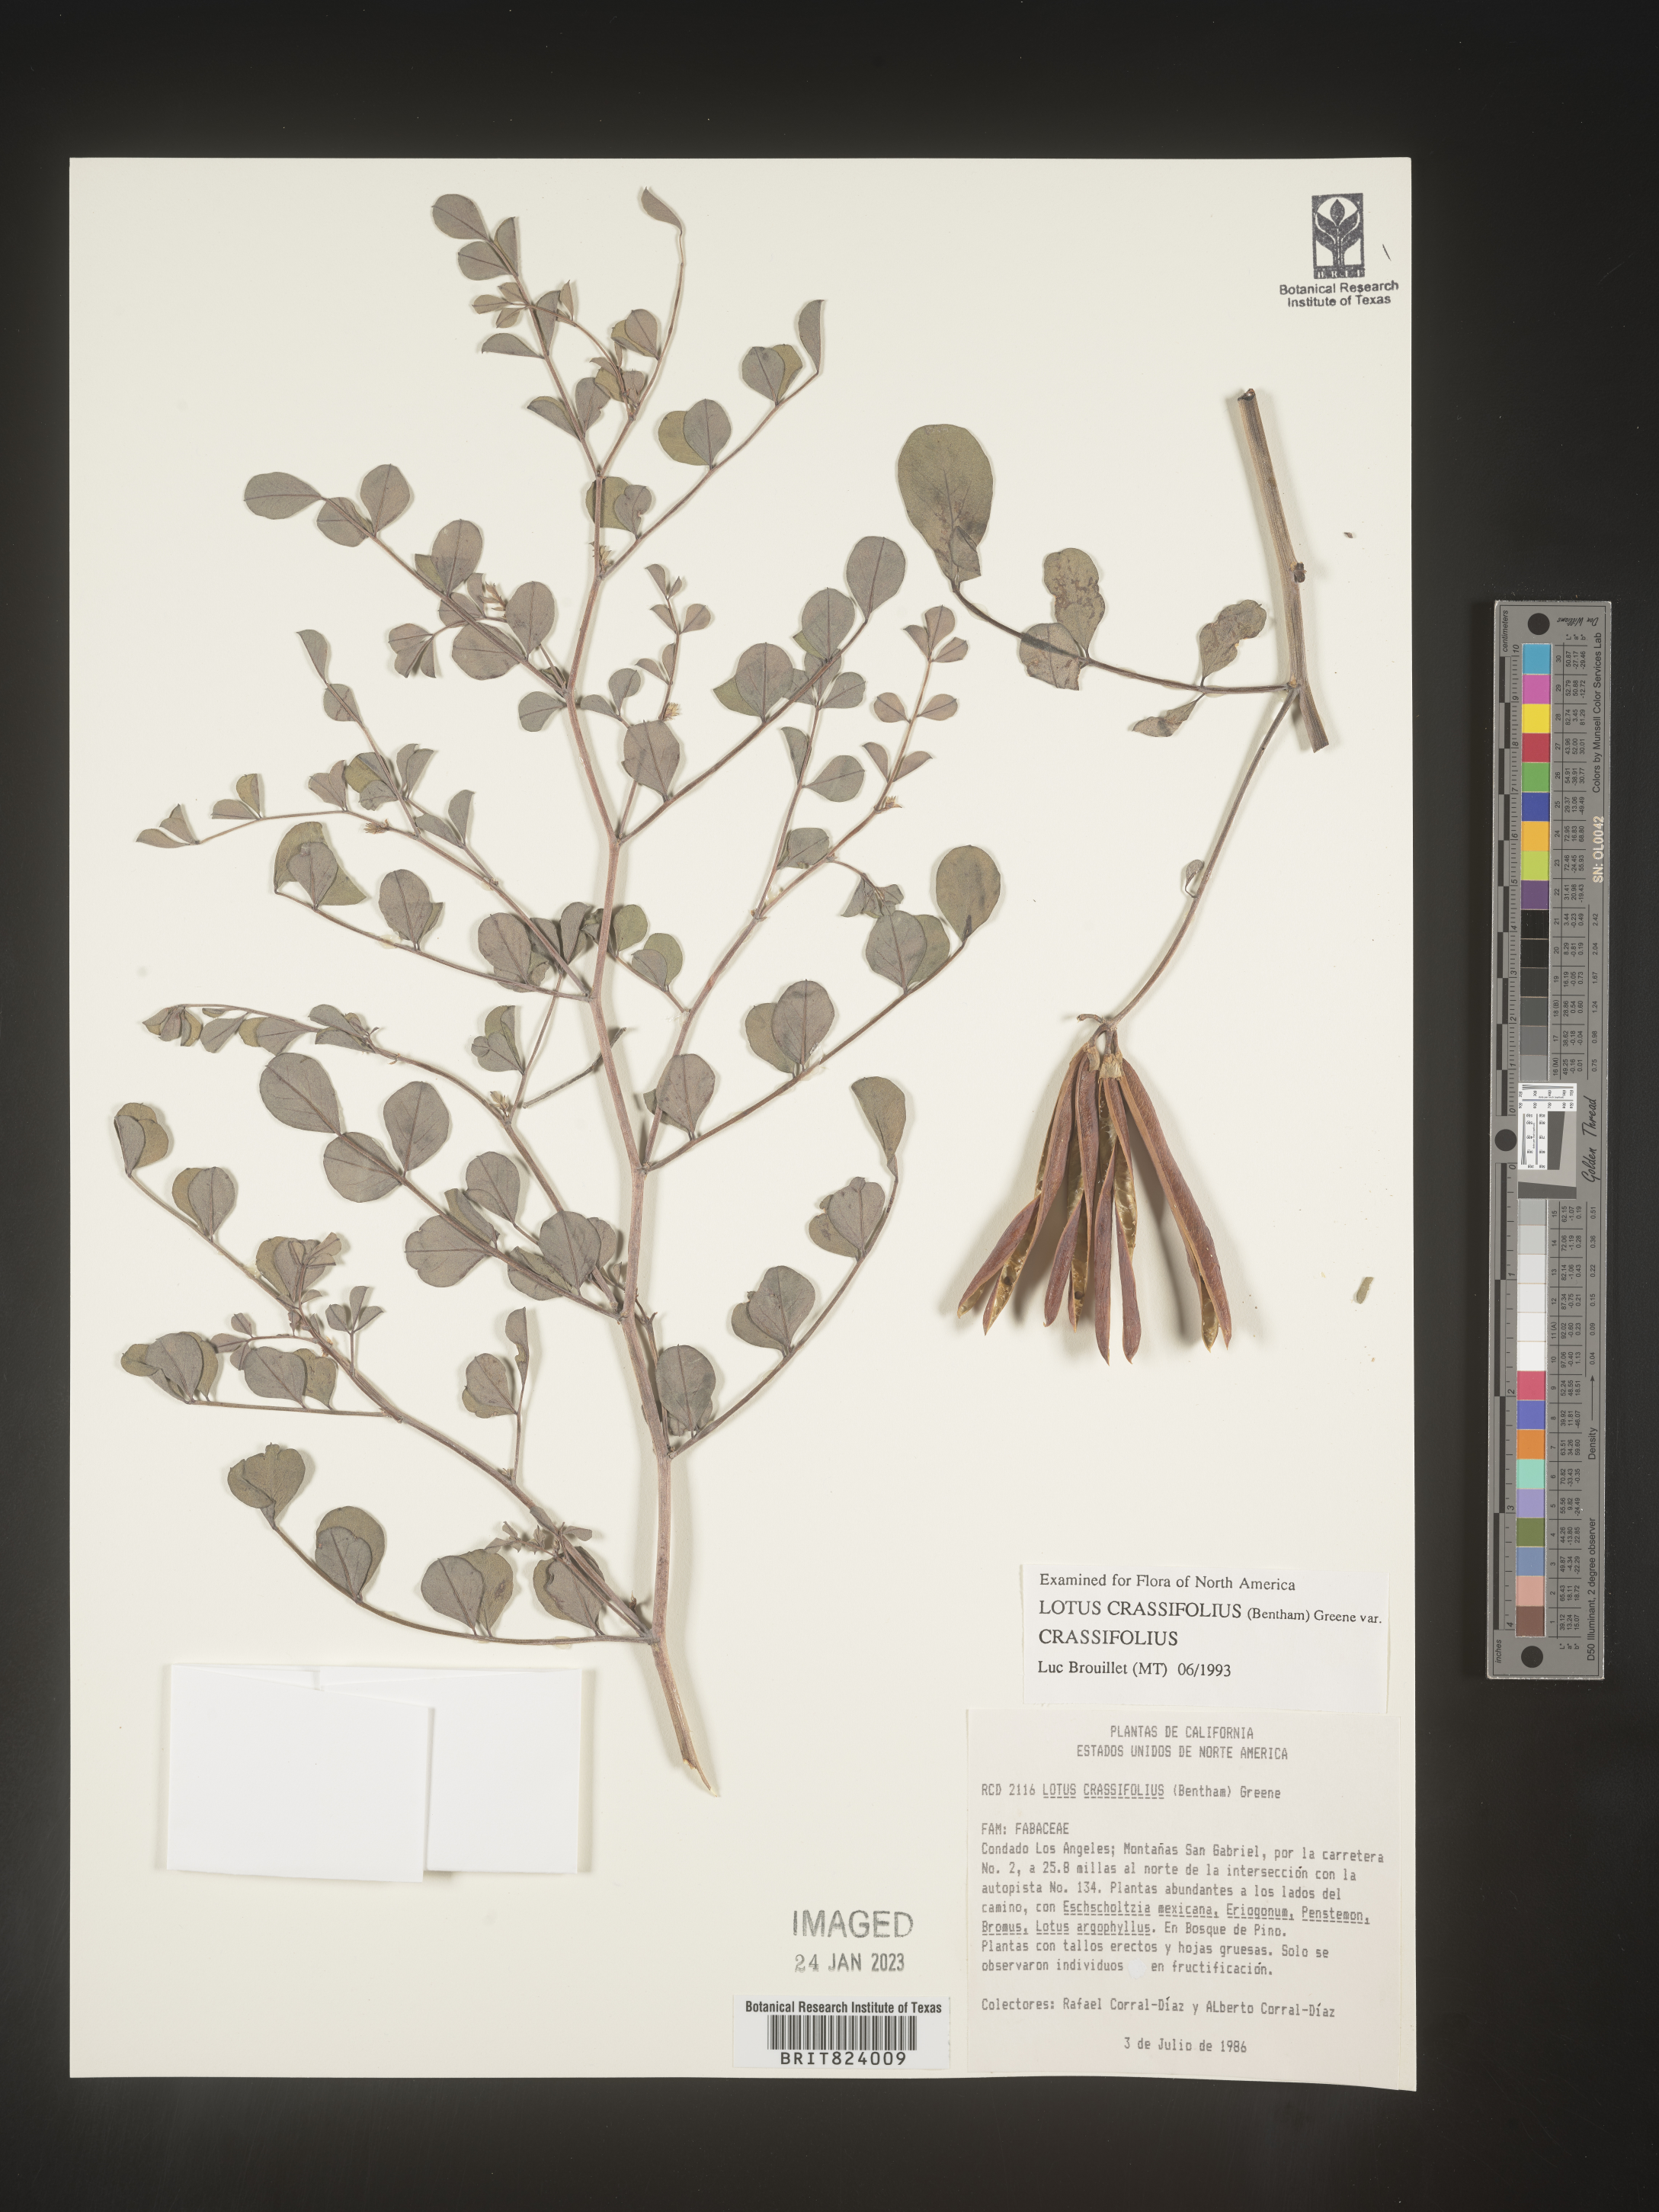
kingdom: Plantae
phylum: Tracheophyta
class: Magnoliopsida
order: Fabales
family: Fabaceae
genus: Hosackia
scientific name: Hosackia crassifolia
